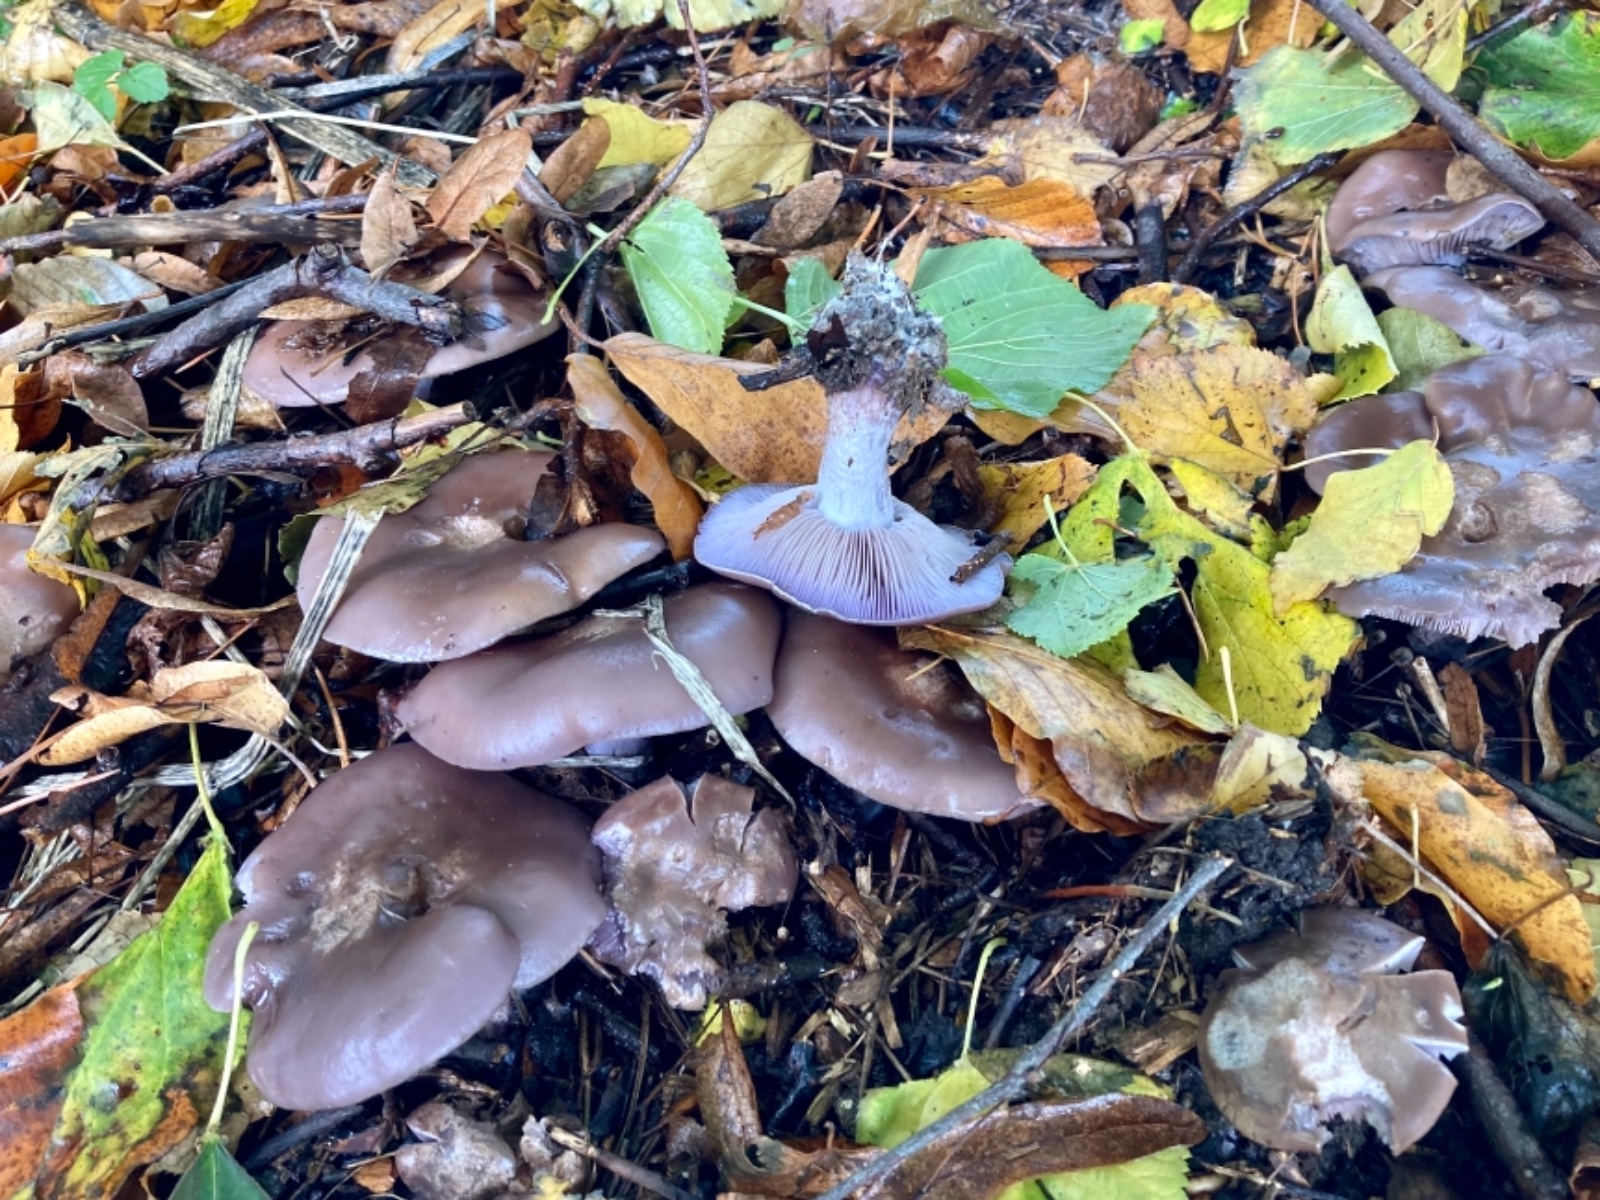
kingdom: Fungi
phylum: Basidiomycota
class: Agaricomycetes
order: Agaricales
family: Tricholomataceae
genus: Lepista
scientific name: Lepista nuda
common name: violet hekseringshat
